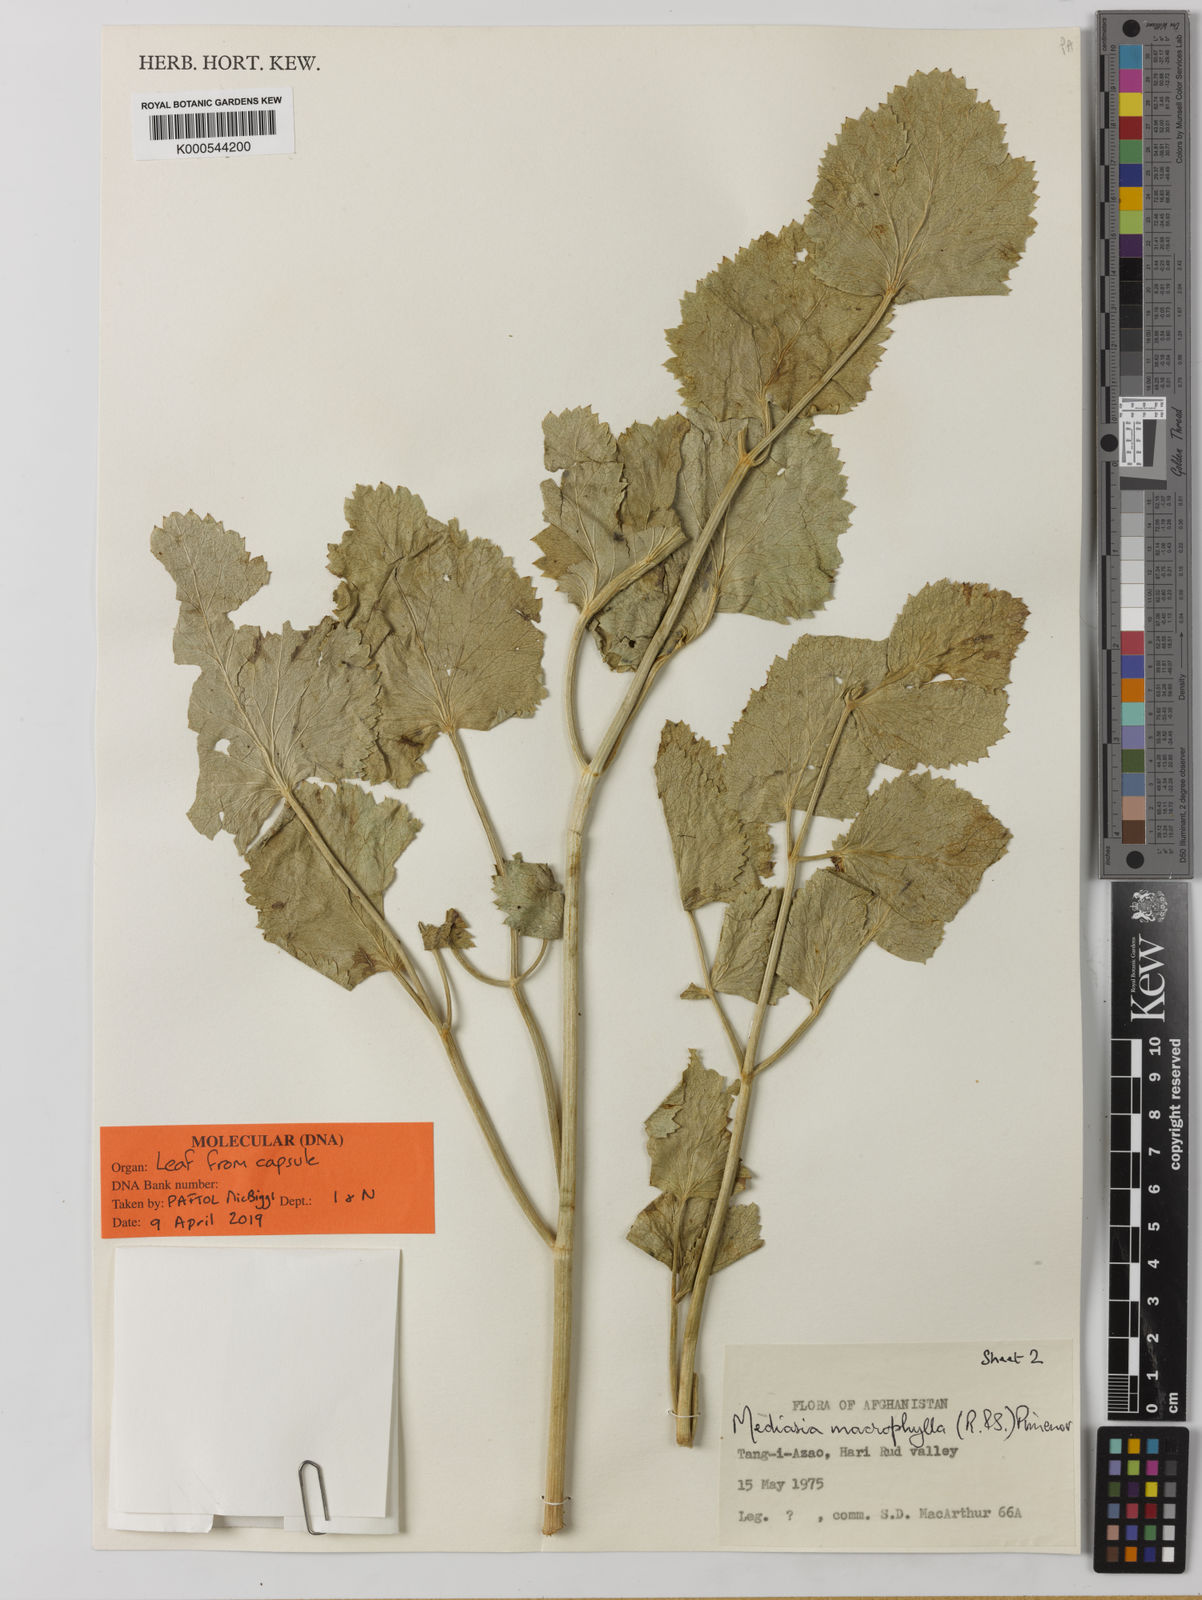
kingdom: Plantae
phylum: Tracheophyta
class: Magnoliopsida
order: Apiales
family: Apiaceae
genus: Mediasia
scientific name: Mediasia macrophylla
